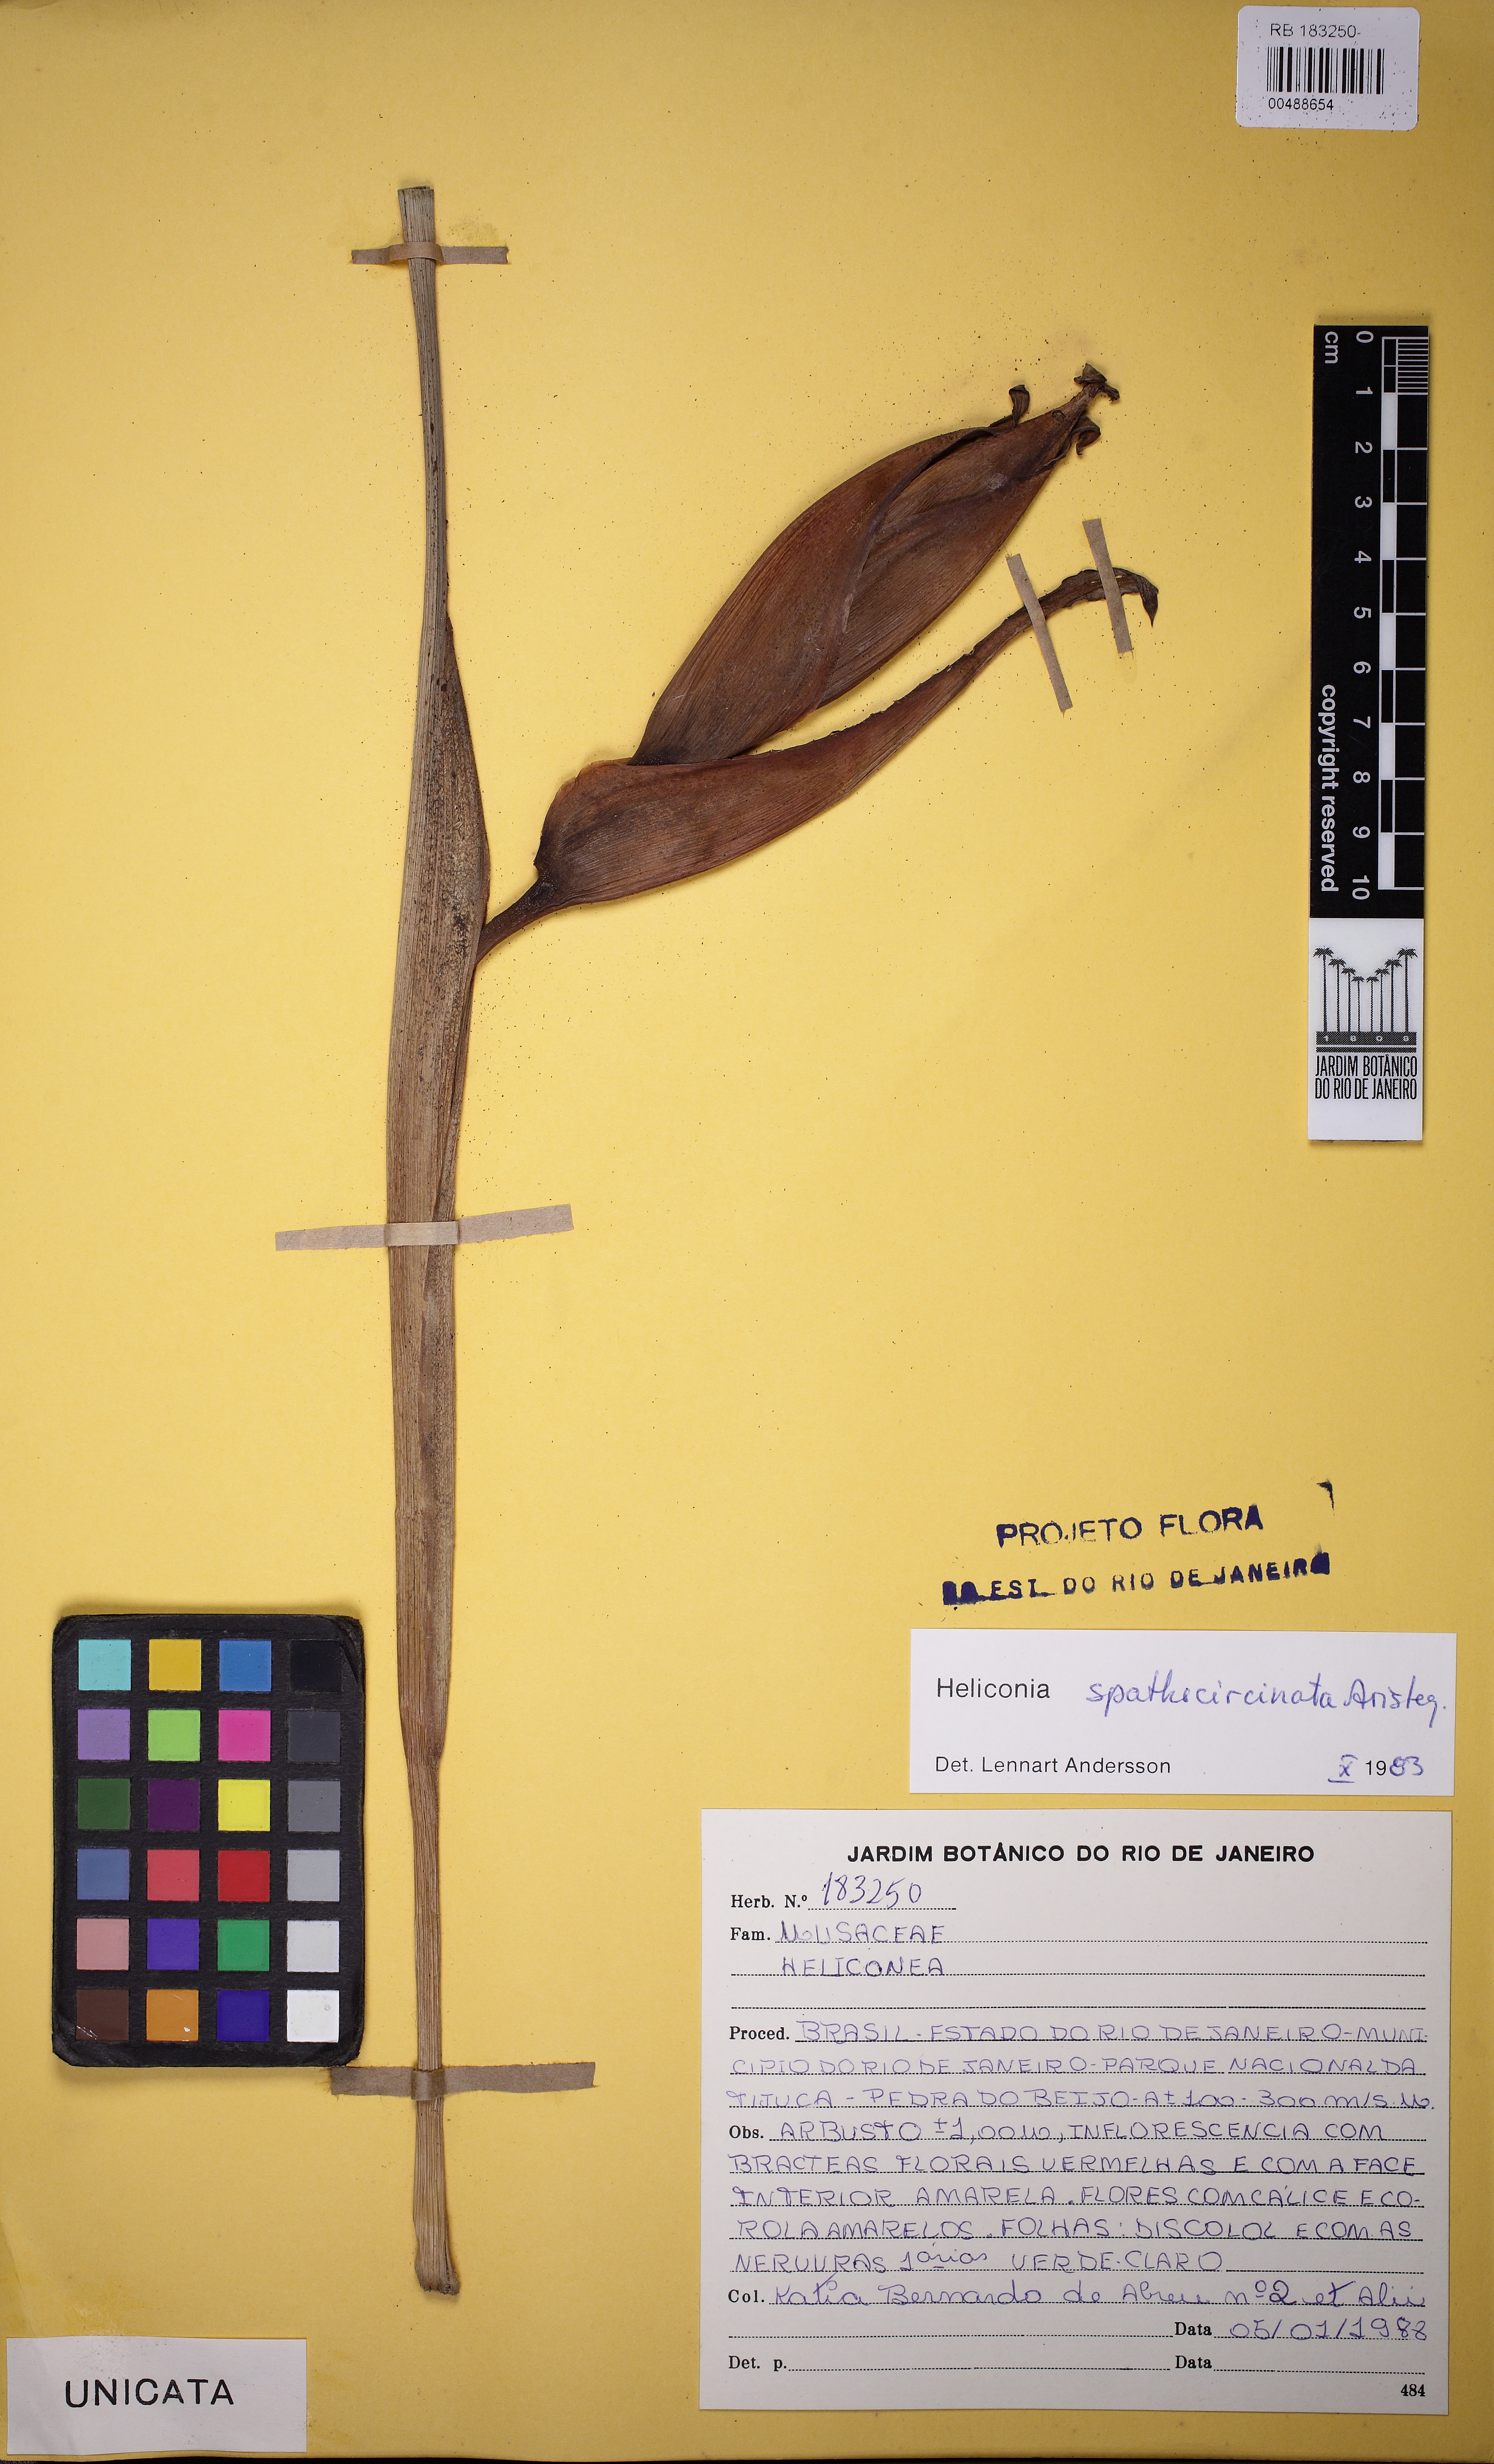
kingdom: Plantae
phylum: Tracheophyta
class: Liliopsida
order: Zingiberales
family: Heliconiaceae
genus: Heliconia
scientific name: Heliconia spathocircinata
